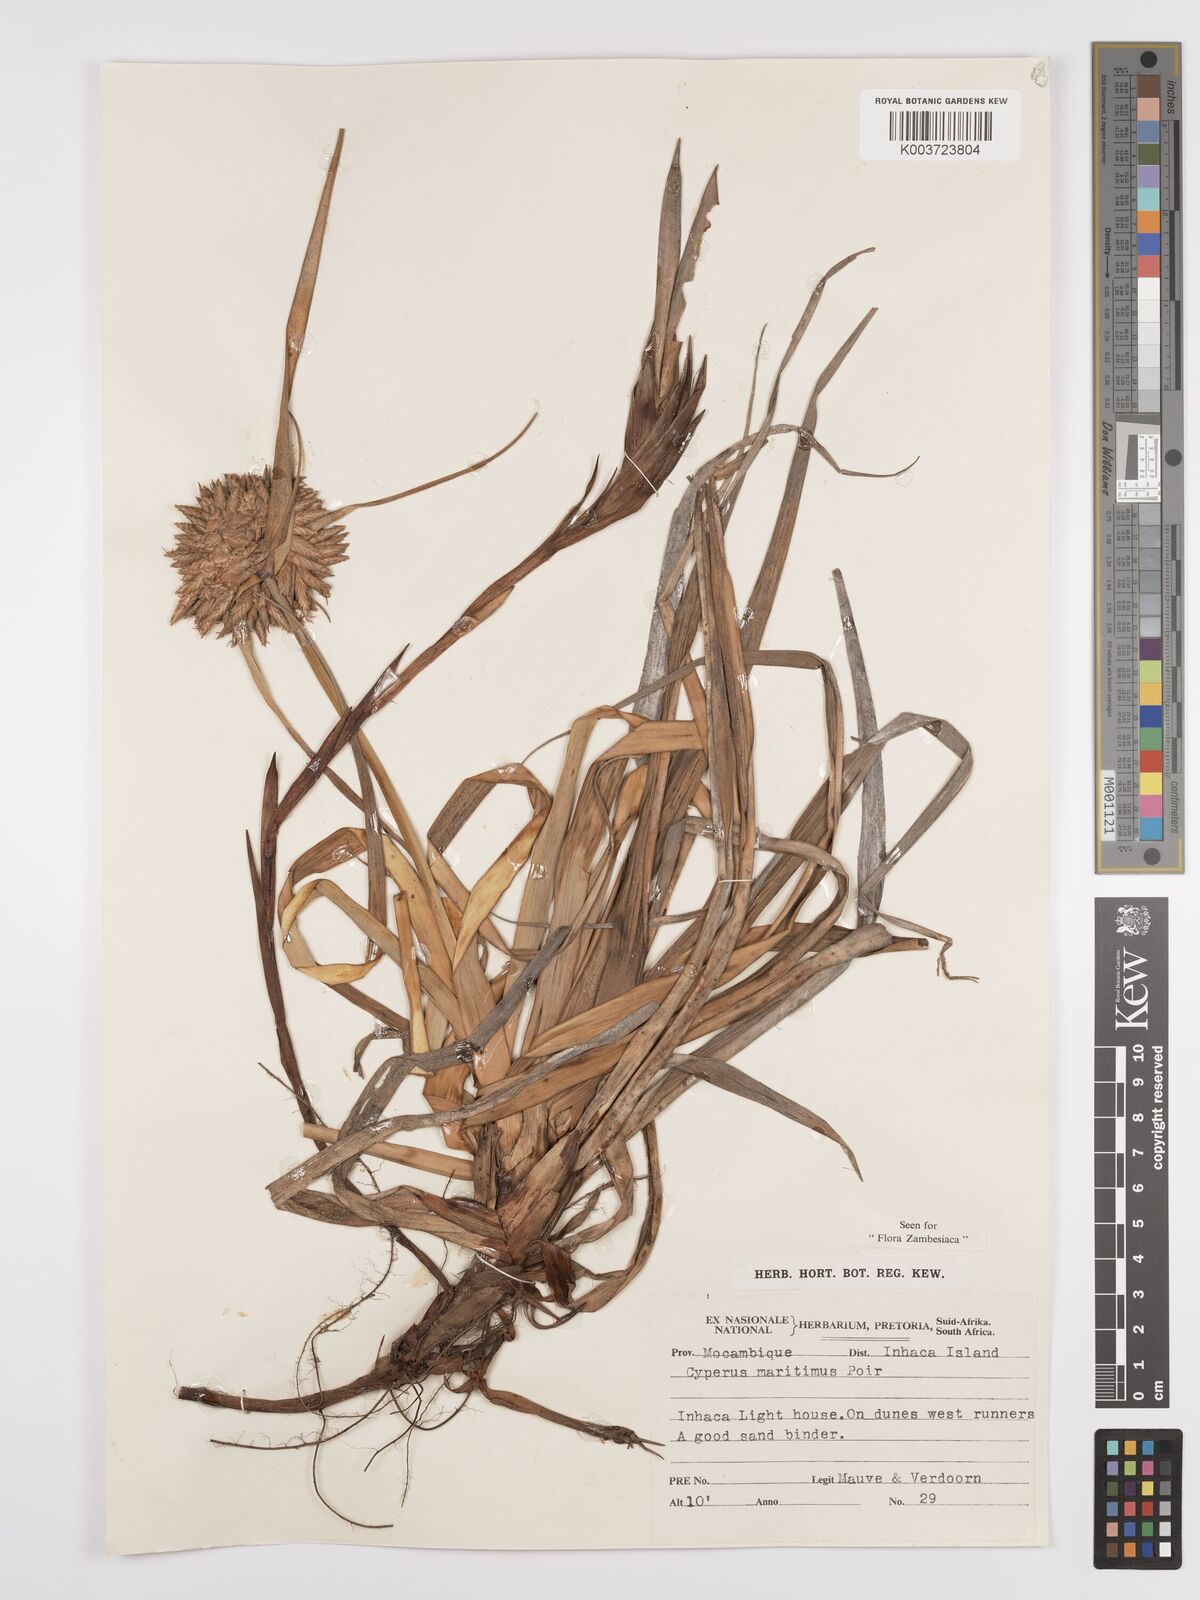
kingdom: Plantae
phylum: Tracheophyta
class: Liliopsida
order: Poales
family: Cyperaceae
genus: Cyperus
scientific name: Cyperus crassipes
